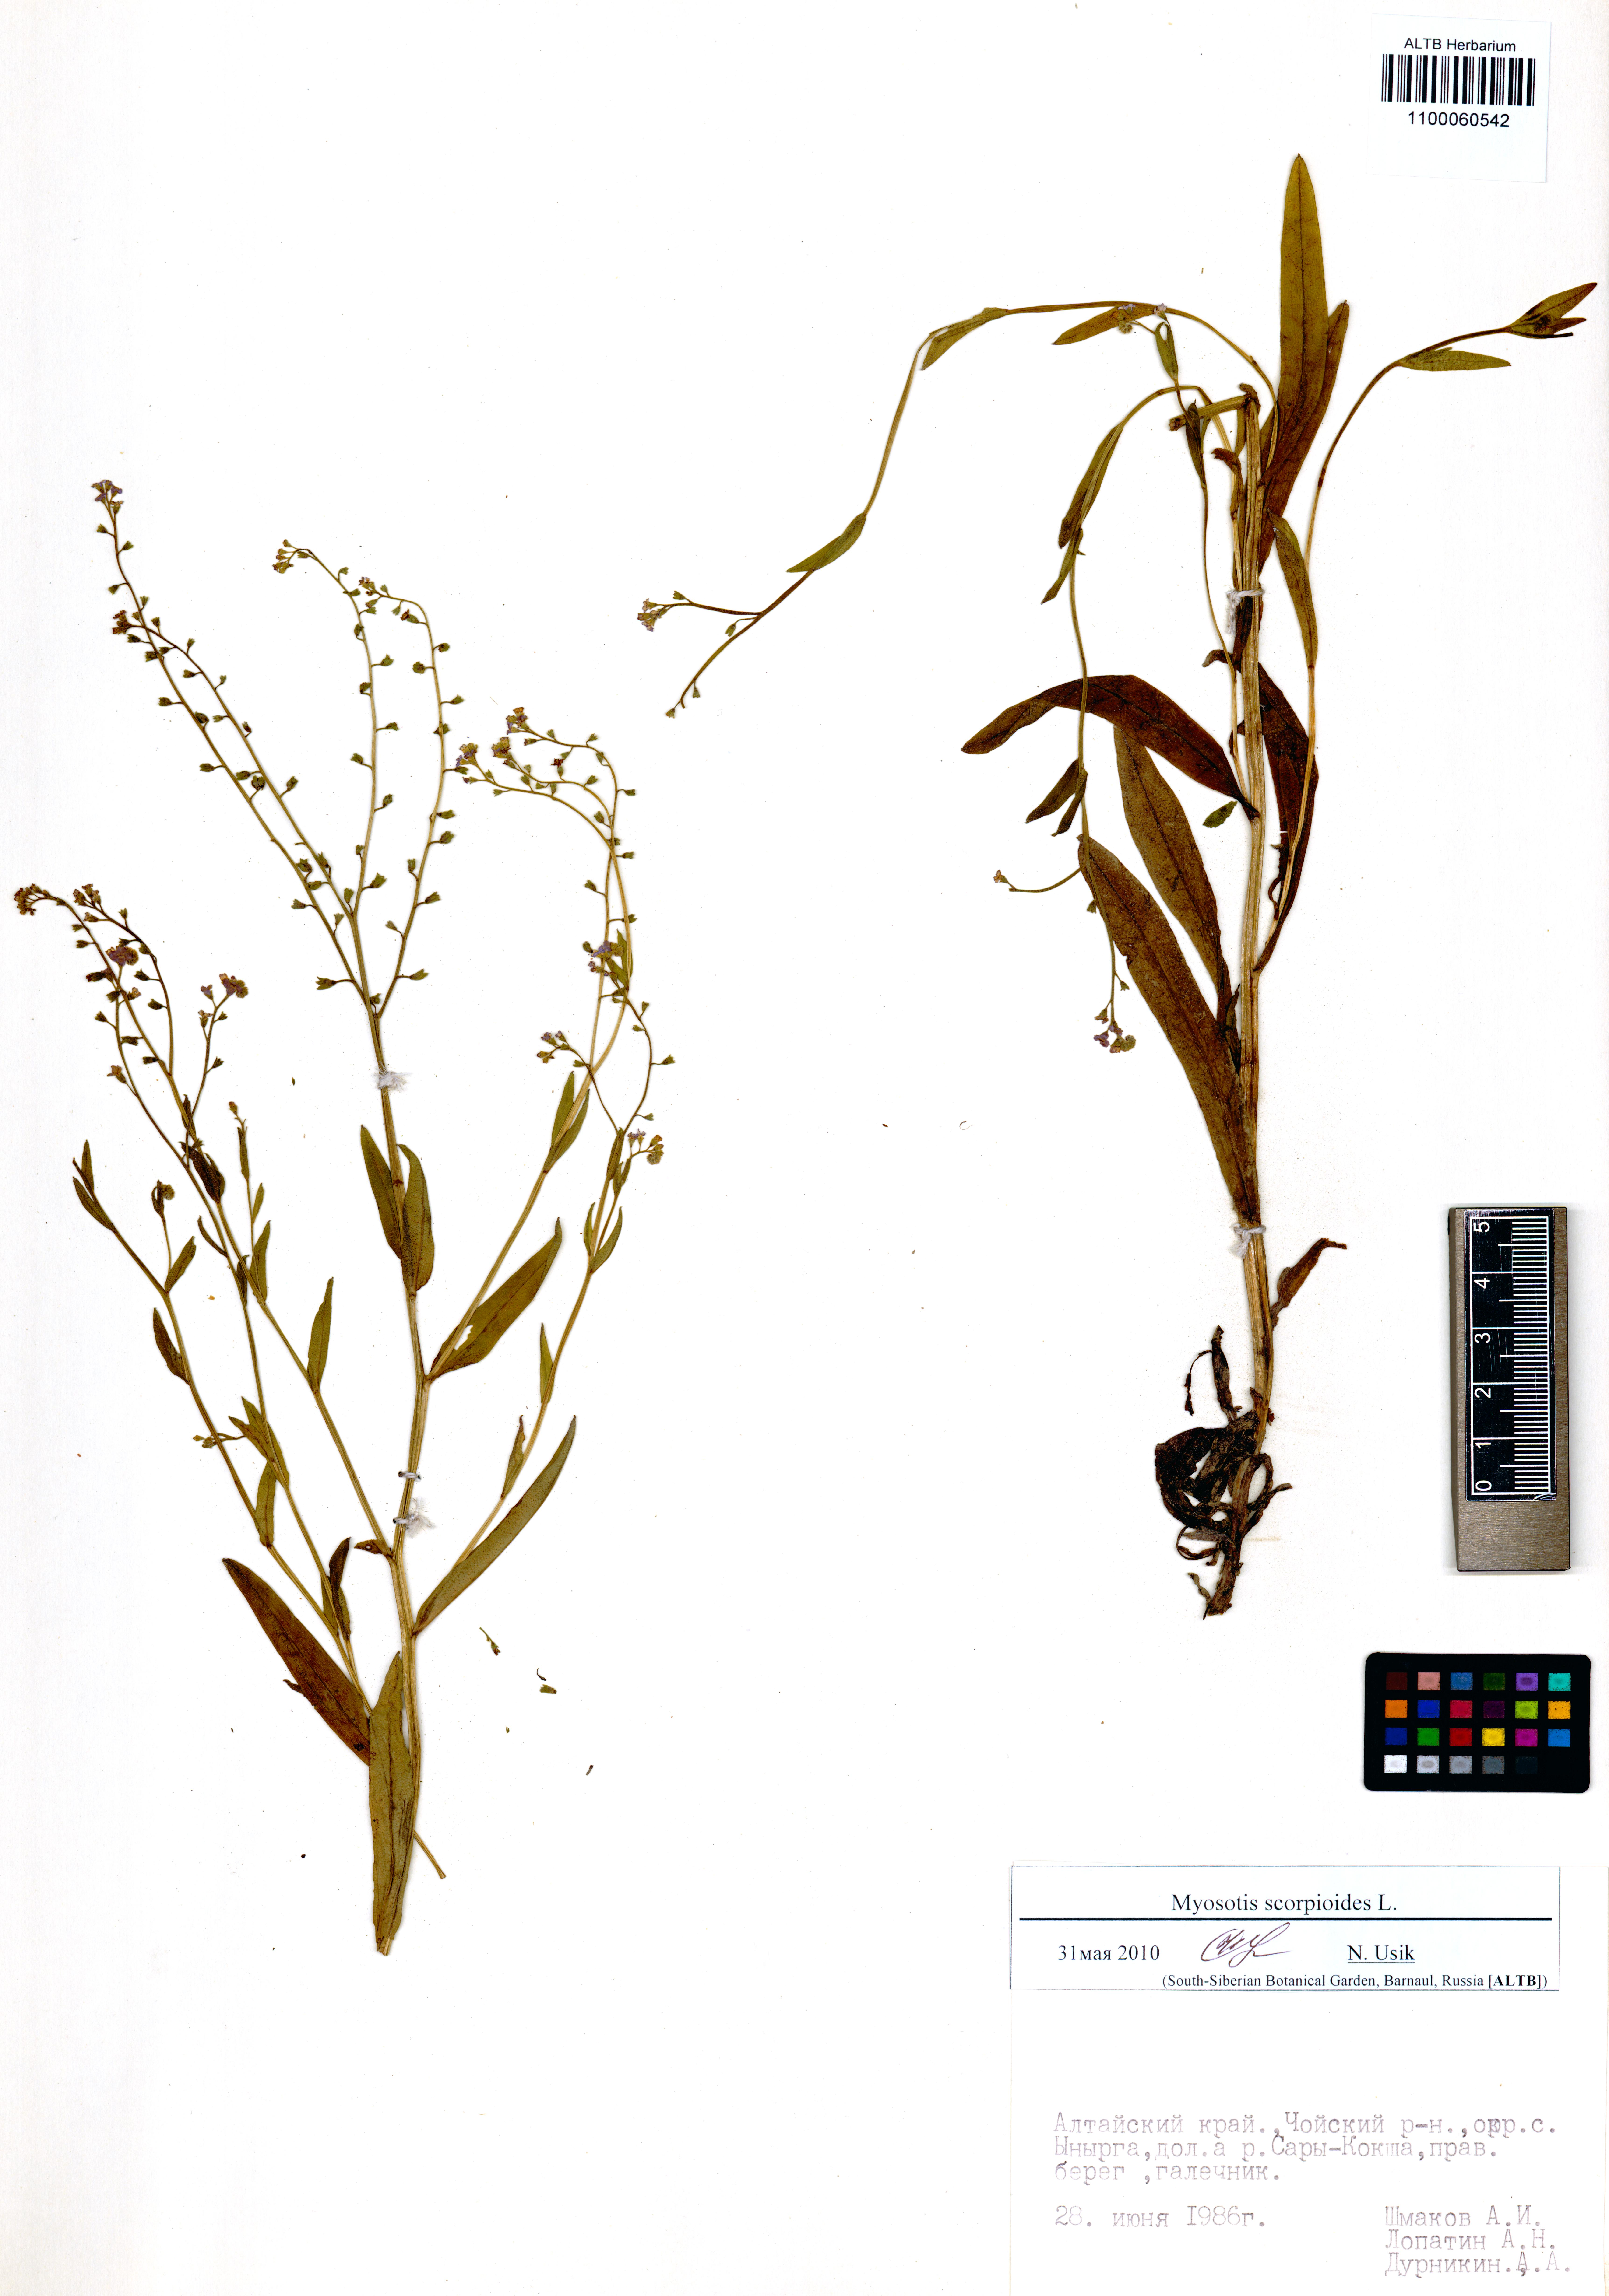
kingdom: Plantae
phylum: Tracheophyta
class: Magnoliopsida
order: Boraginales
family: Boraginaceae
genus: Myosotis
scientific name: Myosotis scorpioides
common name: Water forget-me-not
